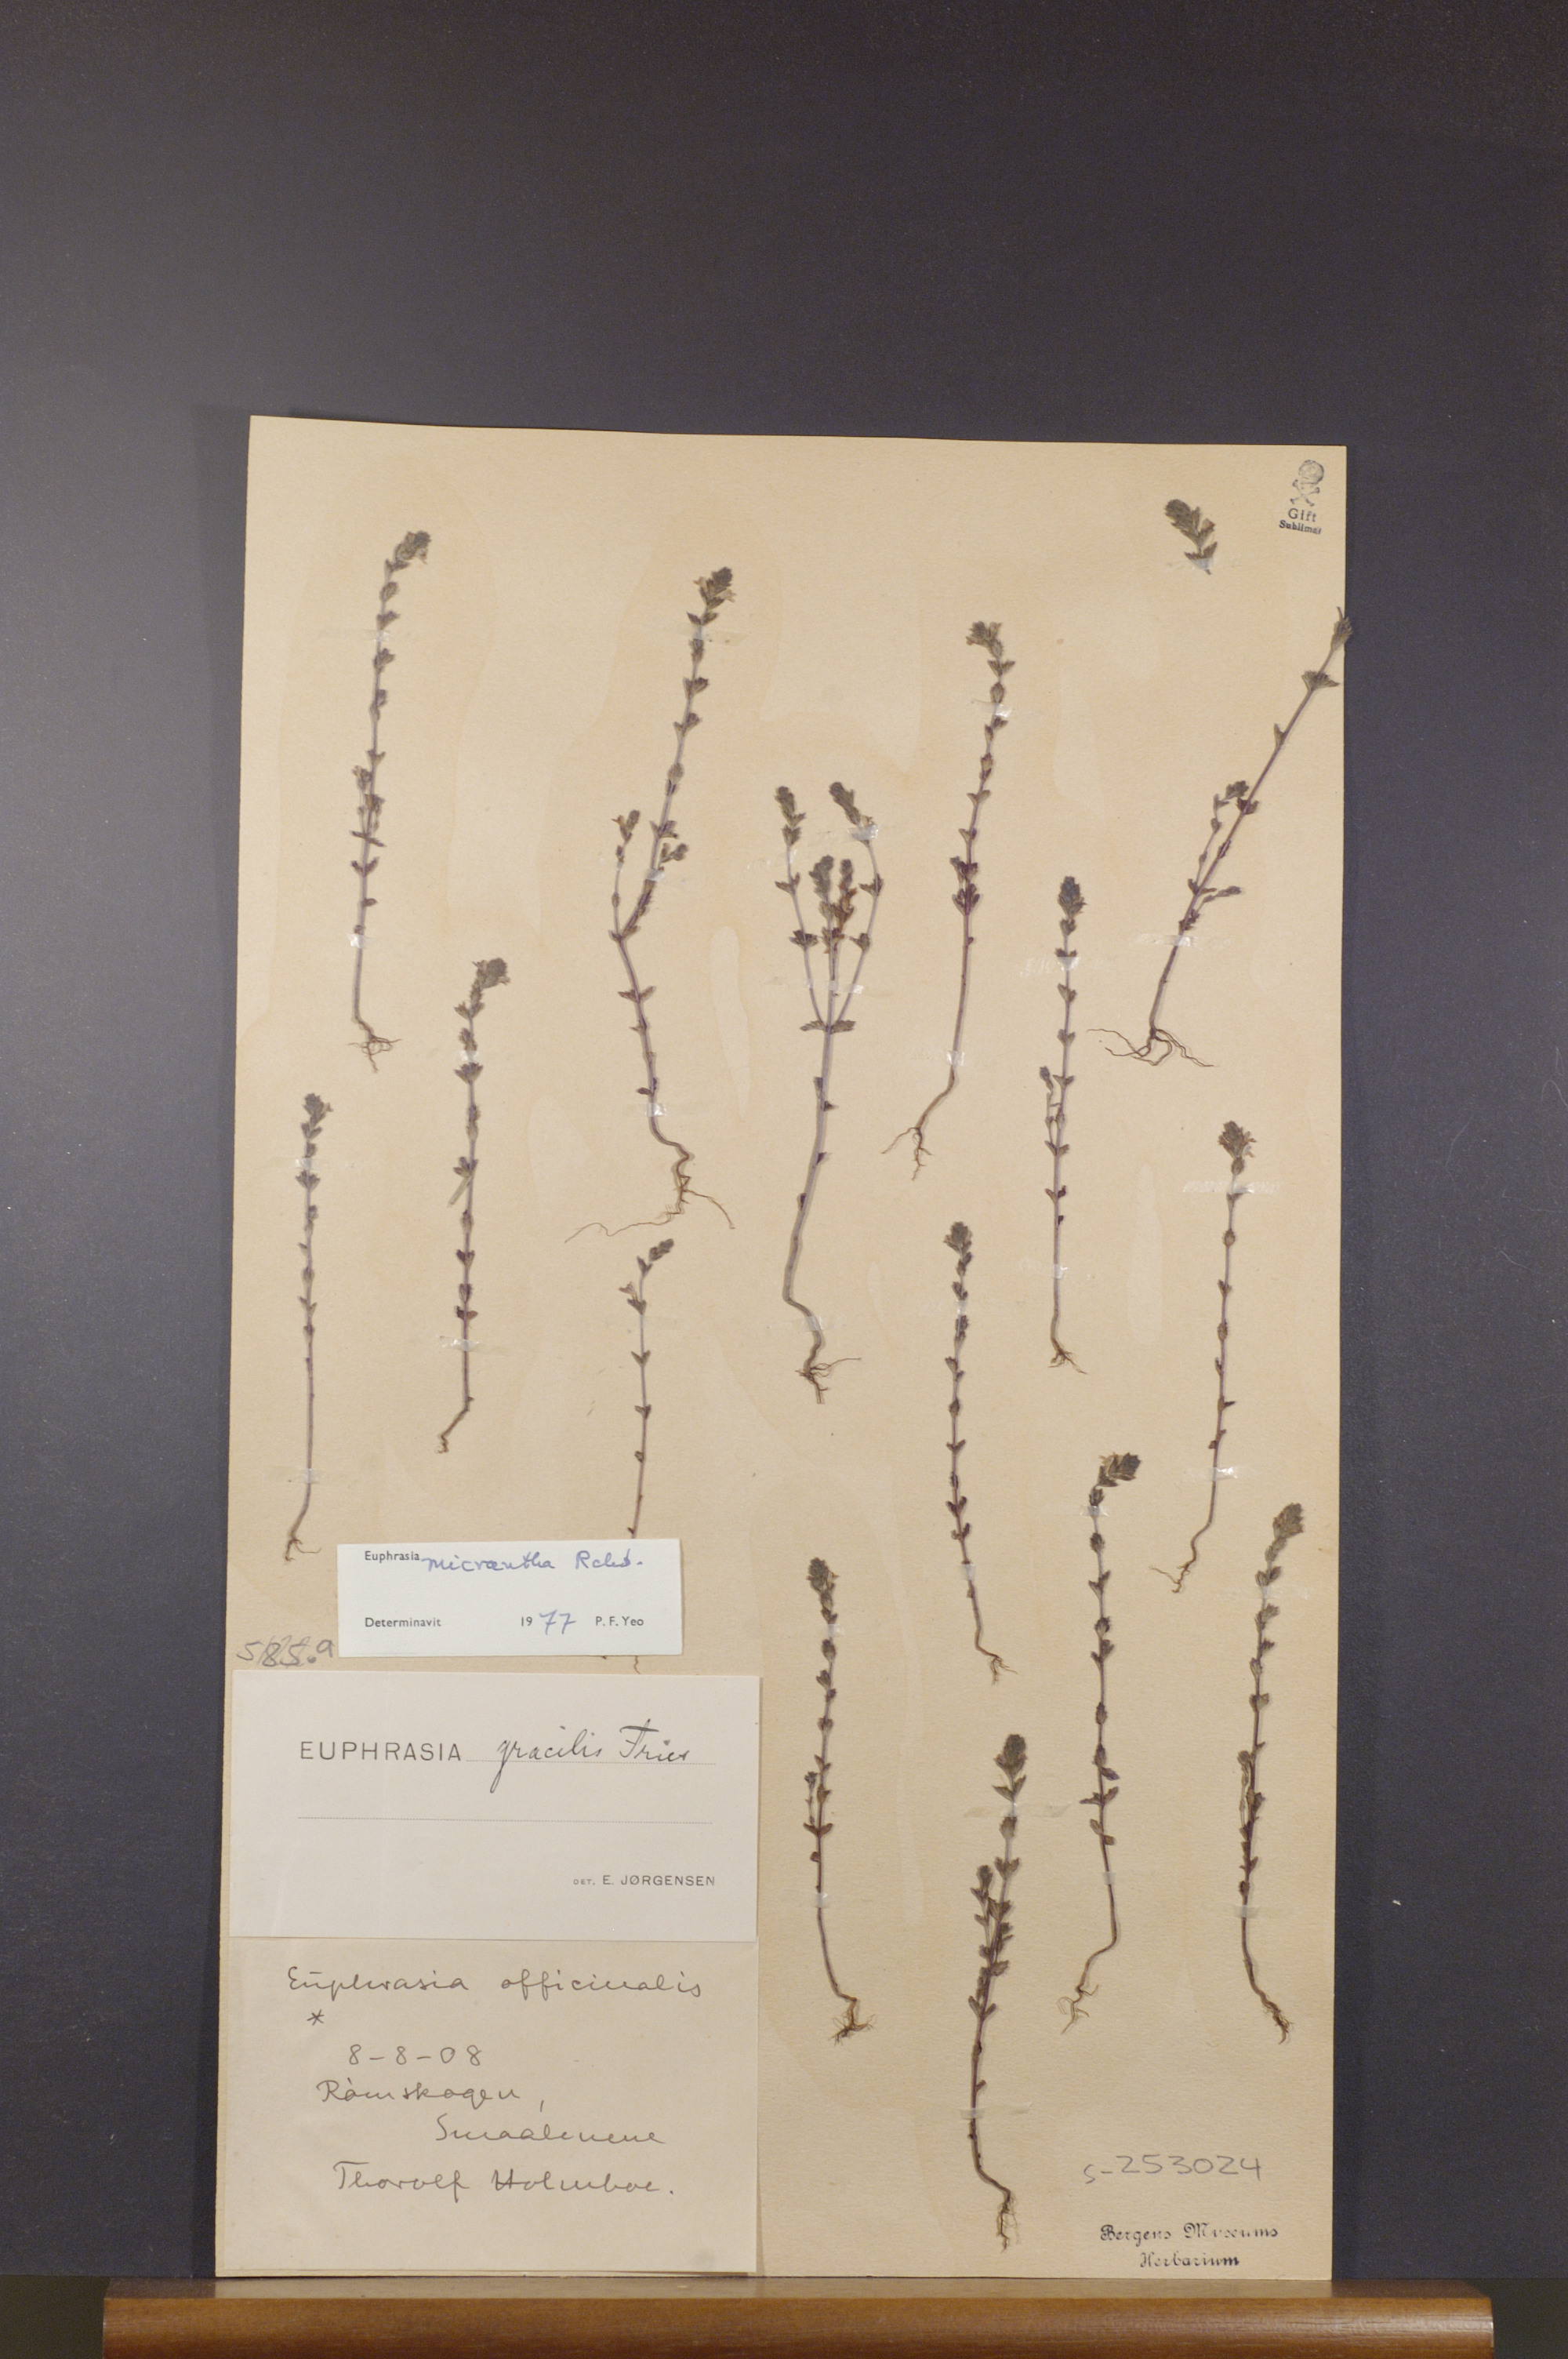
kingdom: Plantae
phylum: Tracheophyta
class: Magnoliopsida
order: Lamiales
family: Orobanchaceae
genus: Euphrasia
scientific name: Euphrasia micrantha
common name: Northern eyebright
